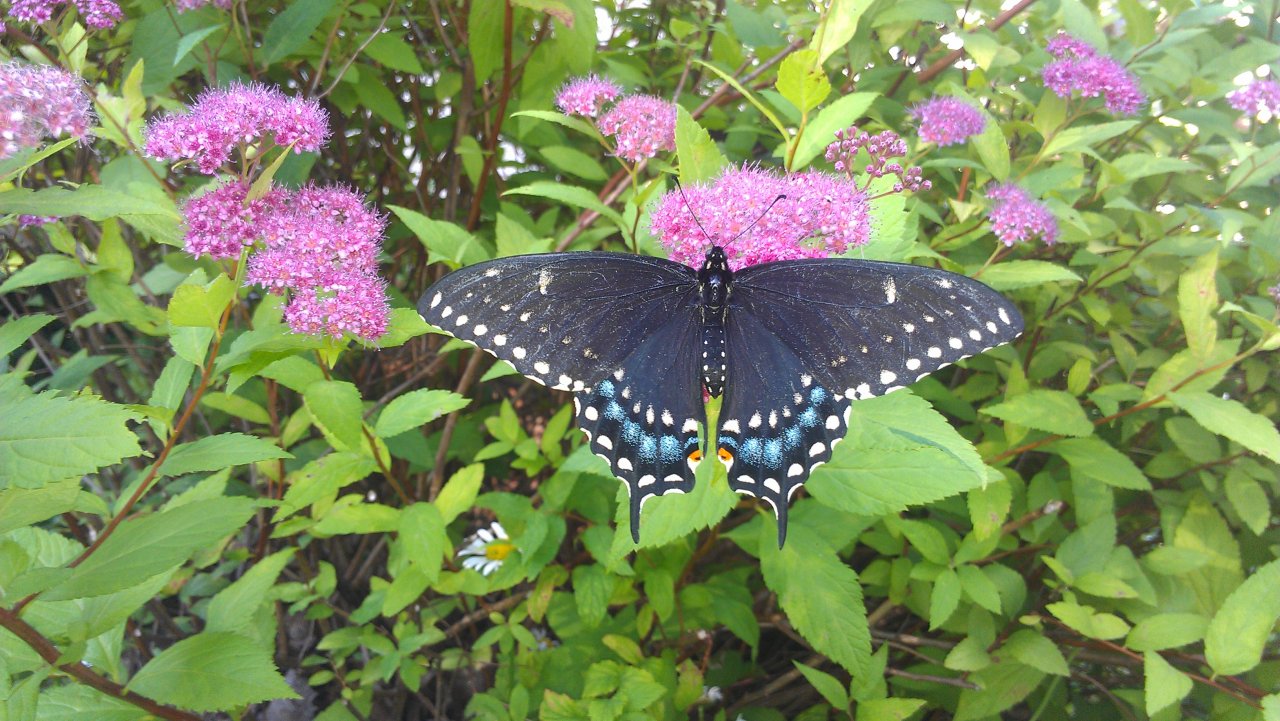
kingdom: Animalia
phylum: Arthropoda
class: Insecta
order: Lepidoptera
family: Papilionidae
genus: Papilio
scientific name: Papilio polyxenes
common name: Black Swallowtail
